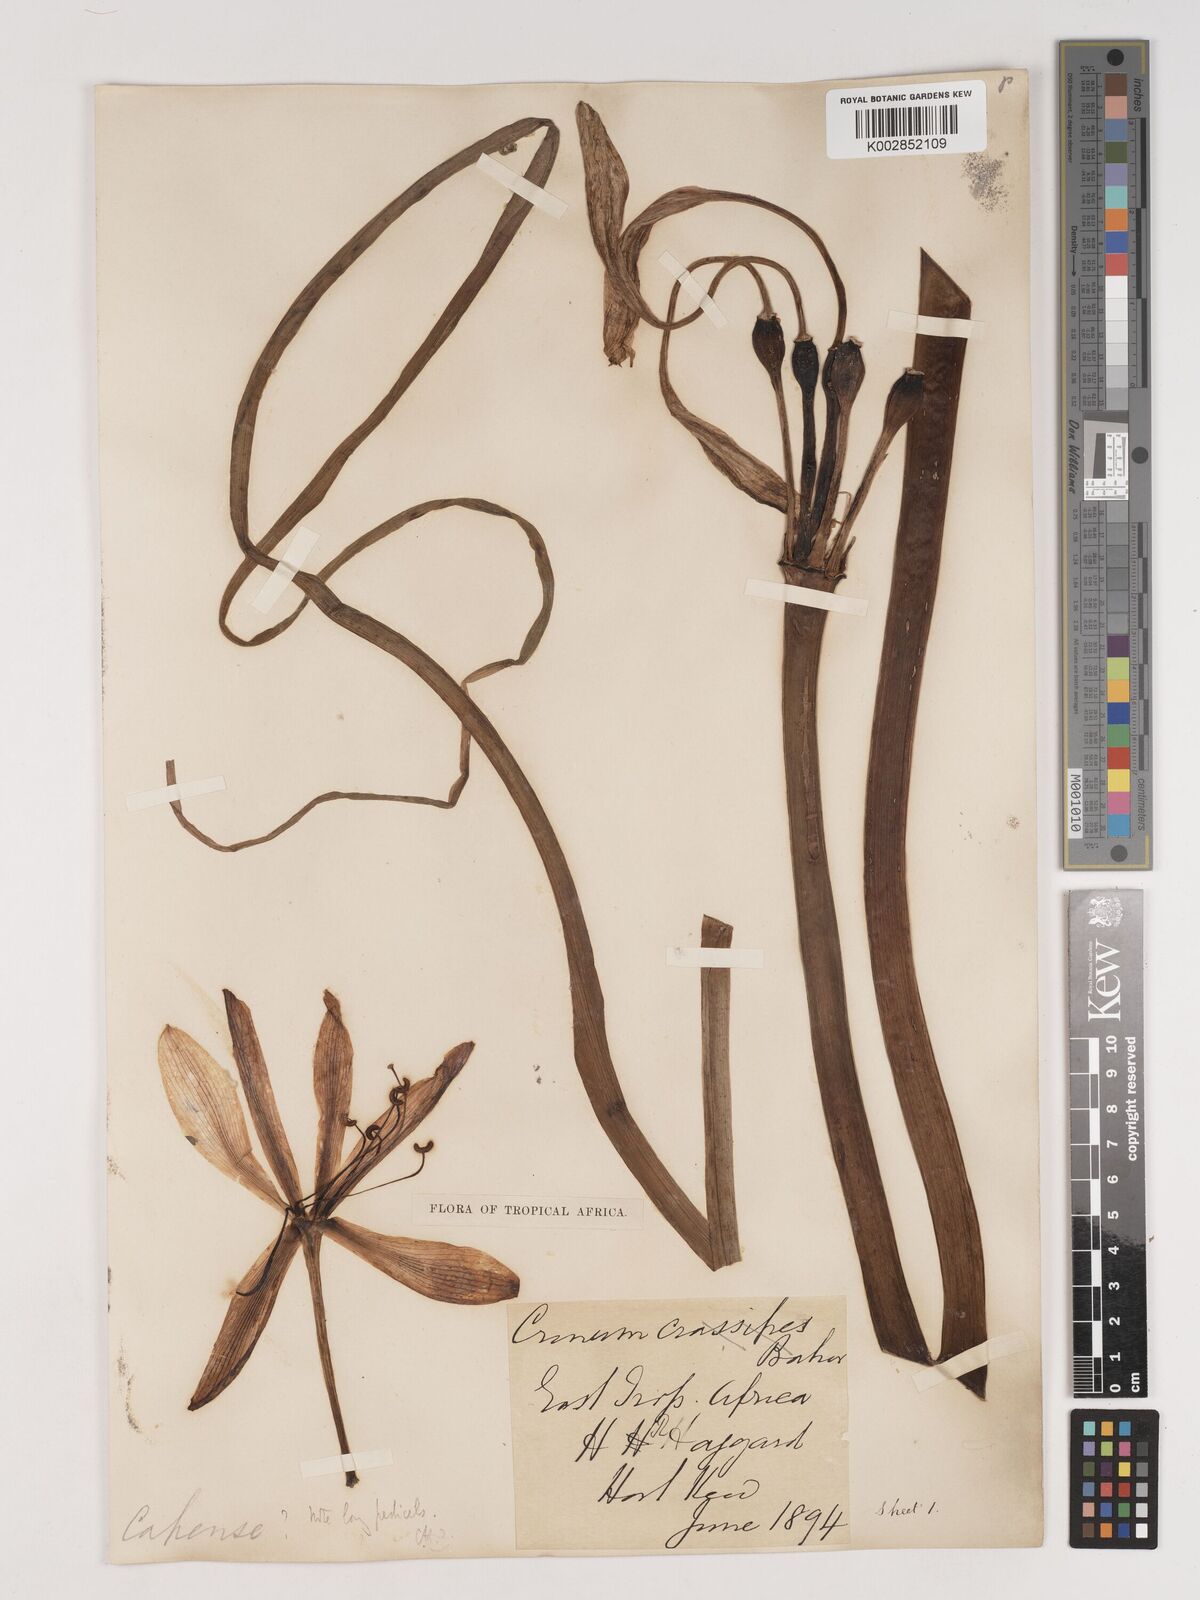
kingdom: Plantae
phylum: Tracheophyta
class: Liliopsida
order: Asparagales
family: Amaryllidaceae
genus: Crinum
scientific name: Crinum bulbispermum
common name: Hardy swamplily
